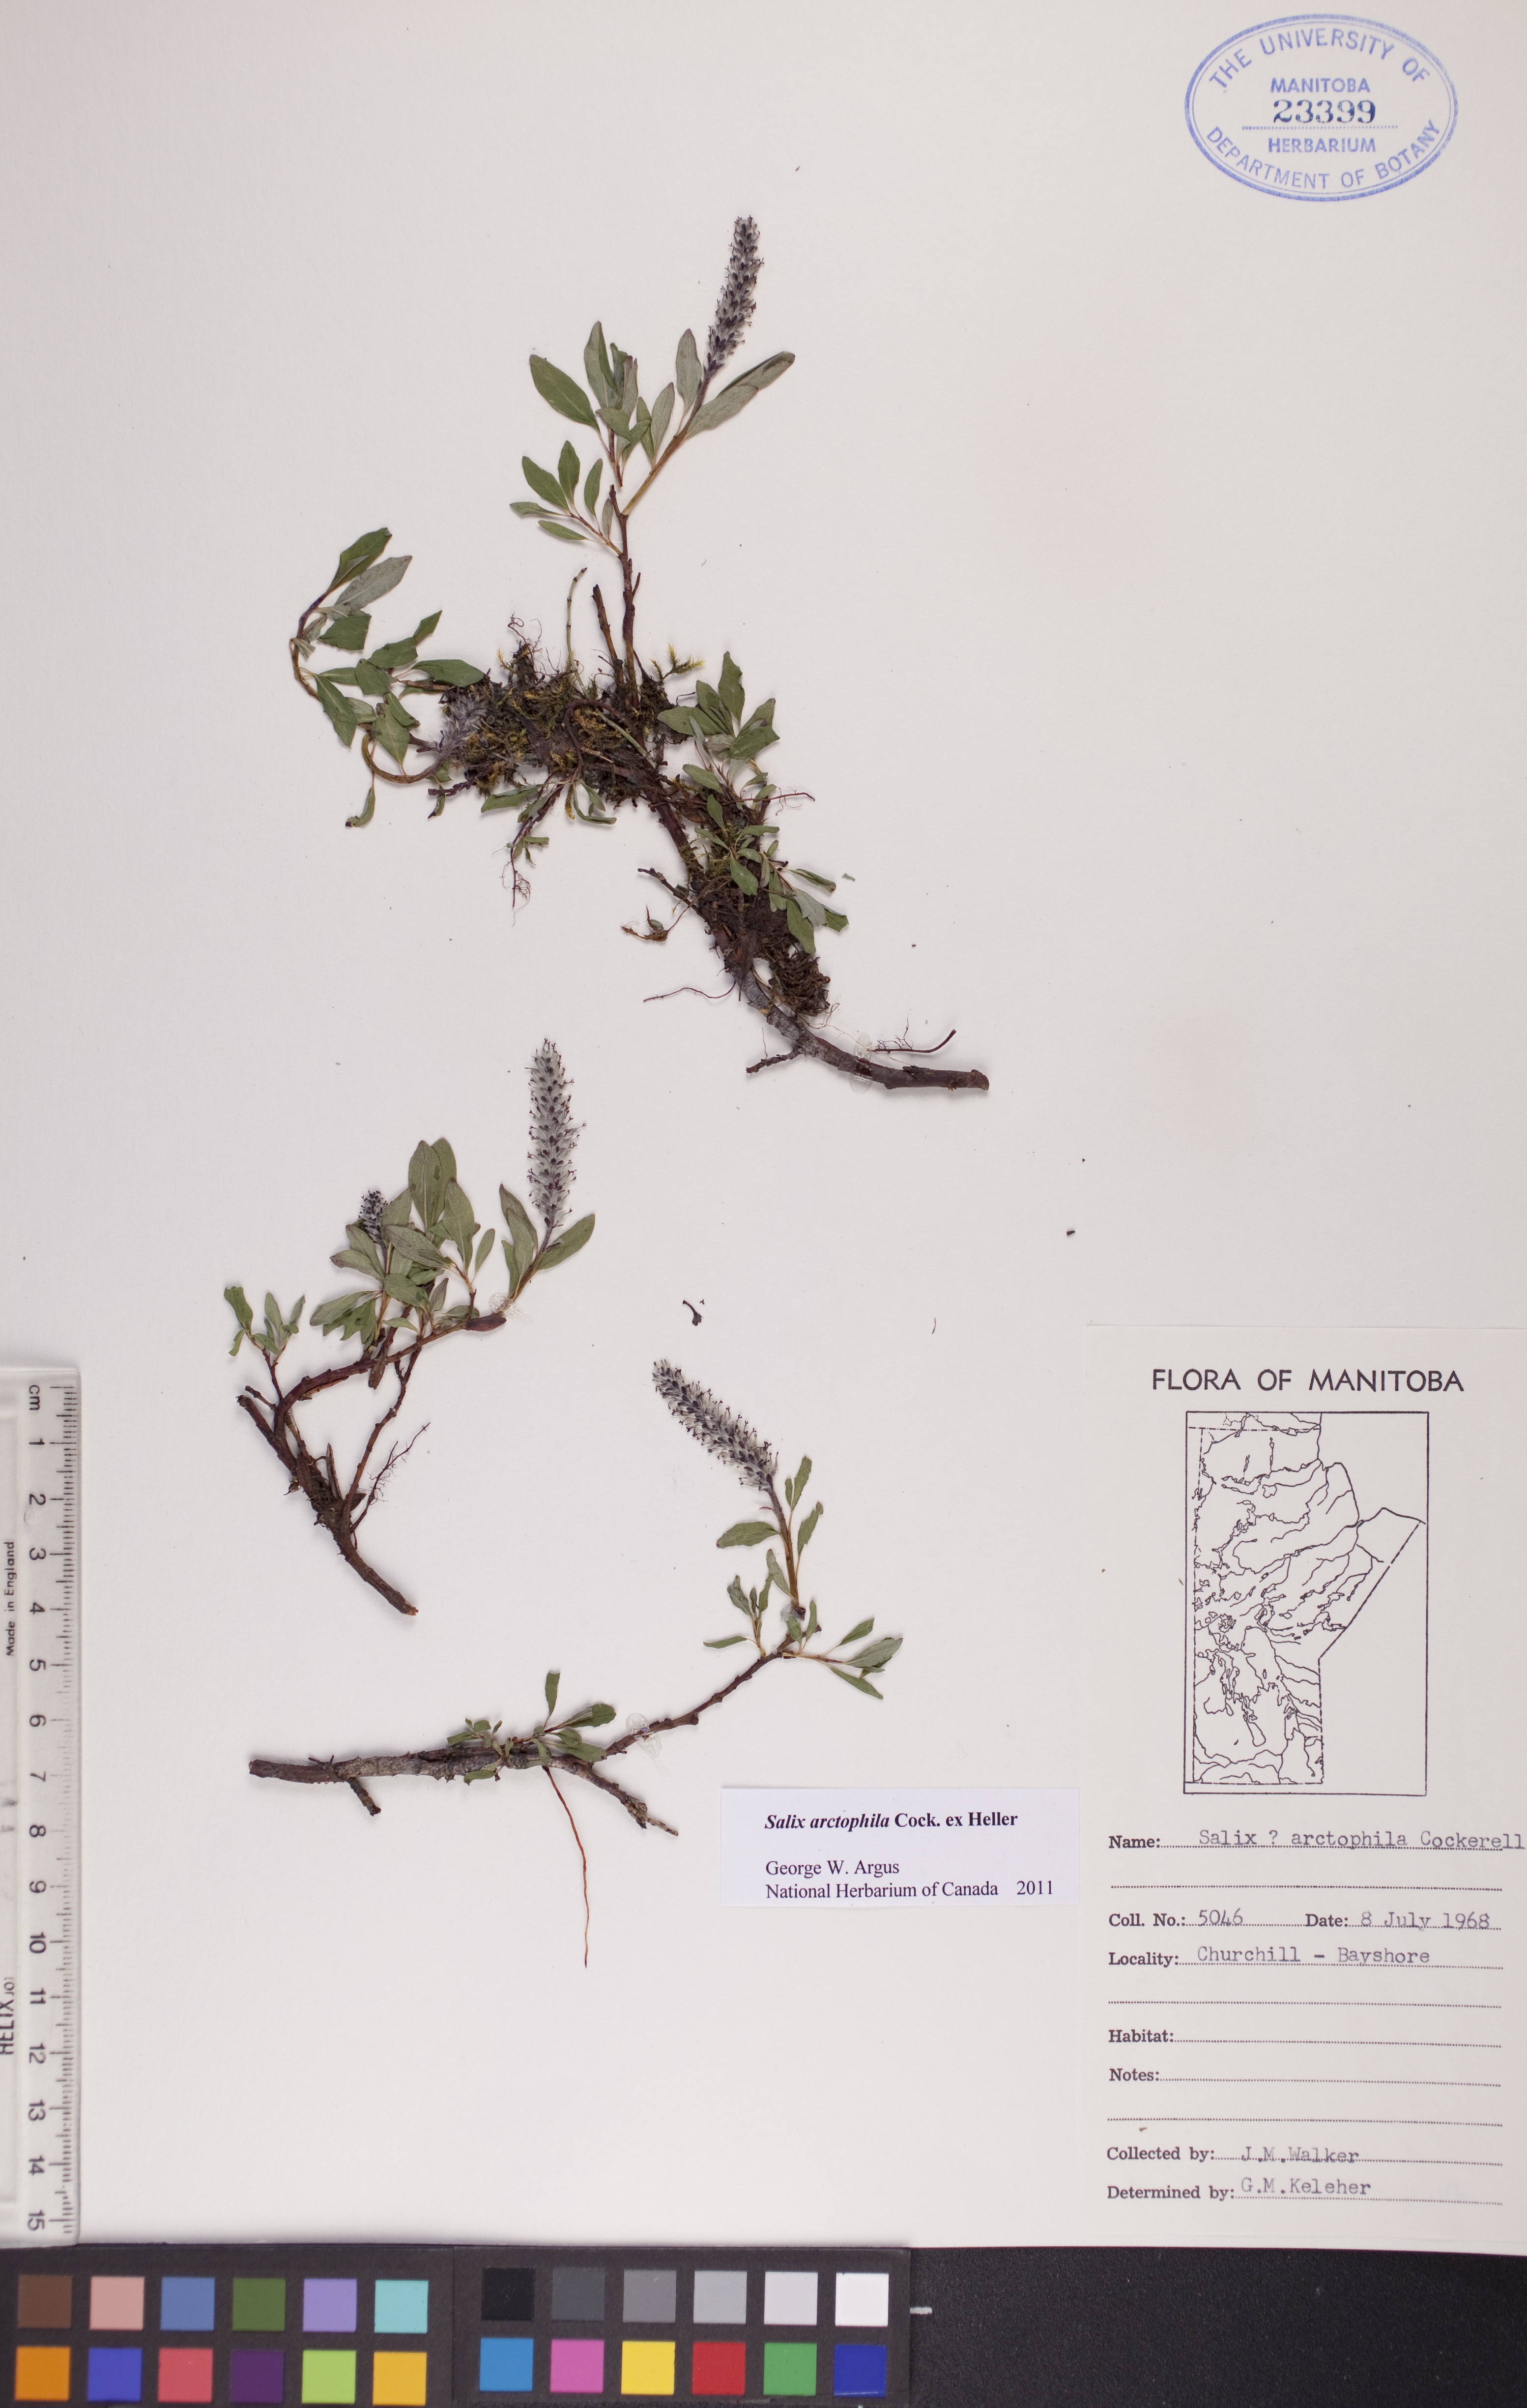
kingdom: Plantae
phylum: Tracheophyta
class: Magnoliopsida
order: Malpighiales
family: Salicaceae
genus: Salix
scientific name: Salix arctophila
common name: Greenland willow
